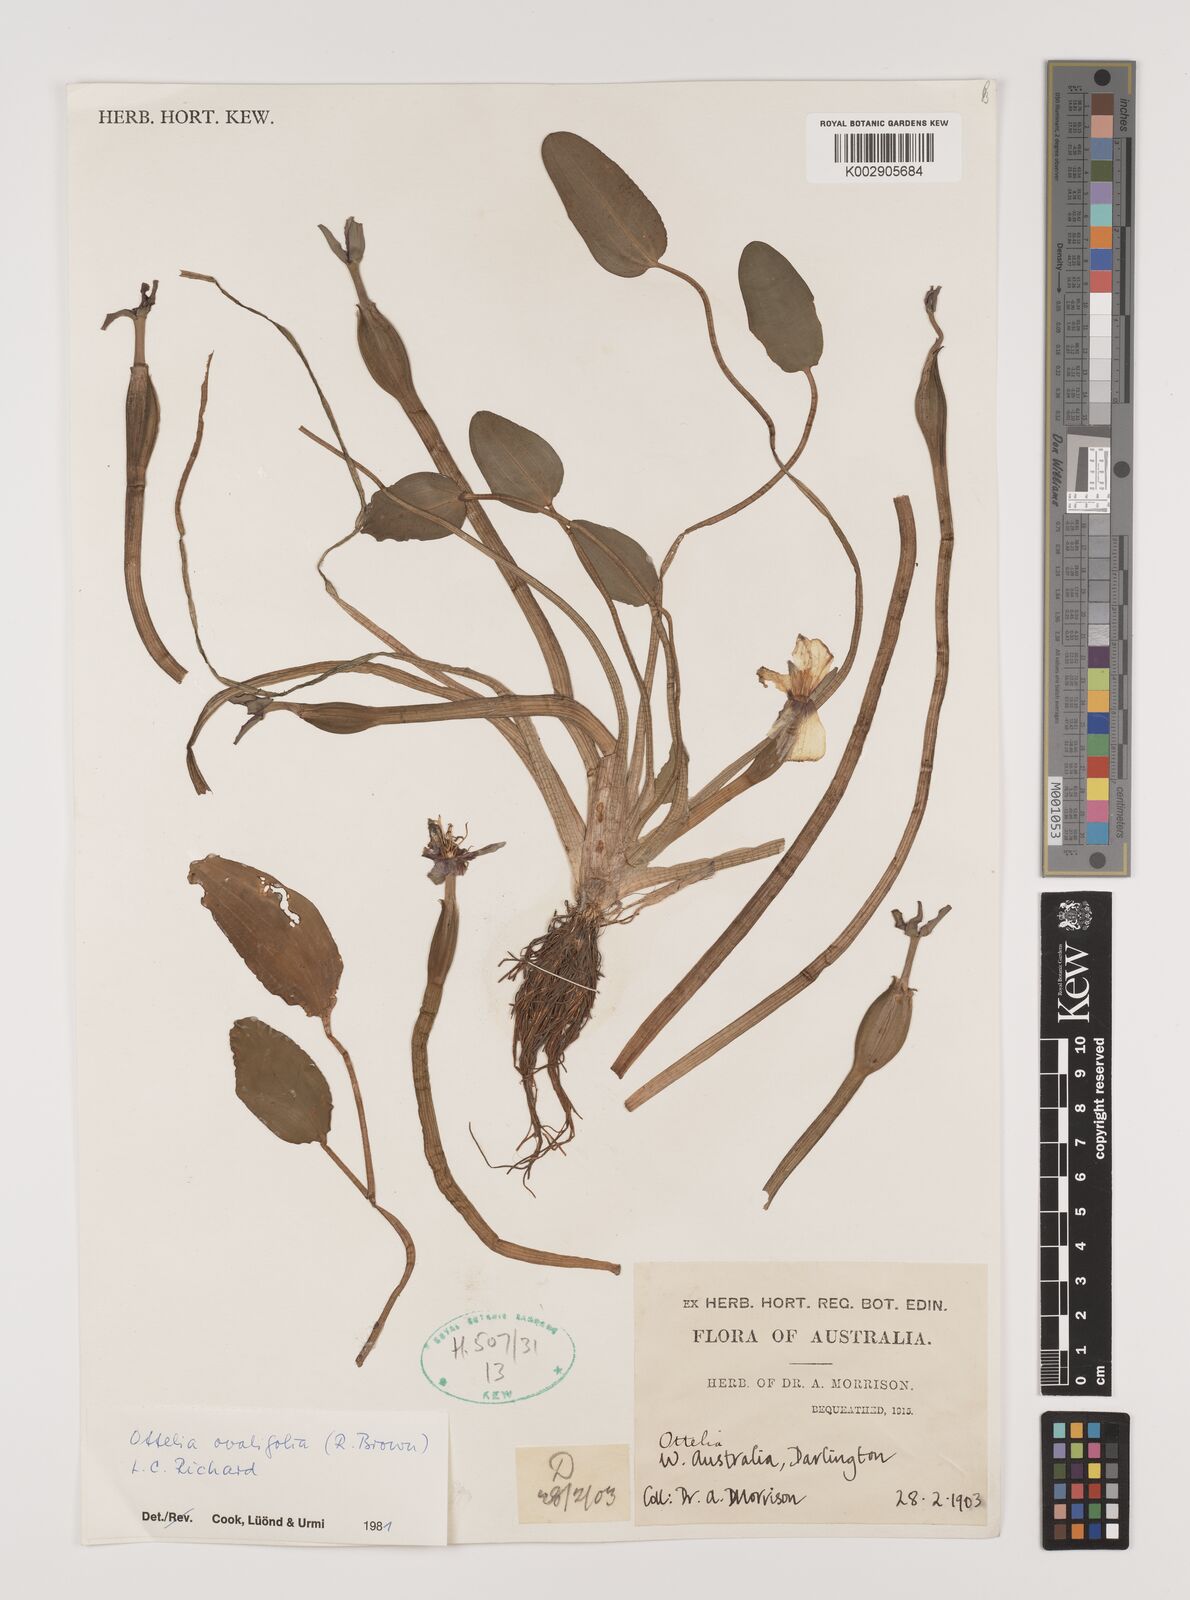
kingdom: Plantae
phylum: Tracheophyta
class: Liliopsida
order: Alismatales
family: Hydrocharitaceae
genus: Ottelia
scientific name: Ottelia ovalifolia
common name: Swamp-lily
